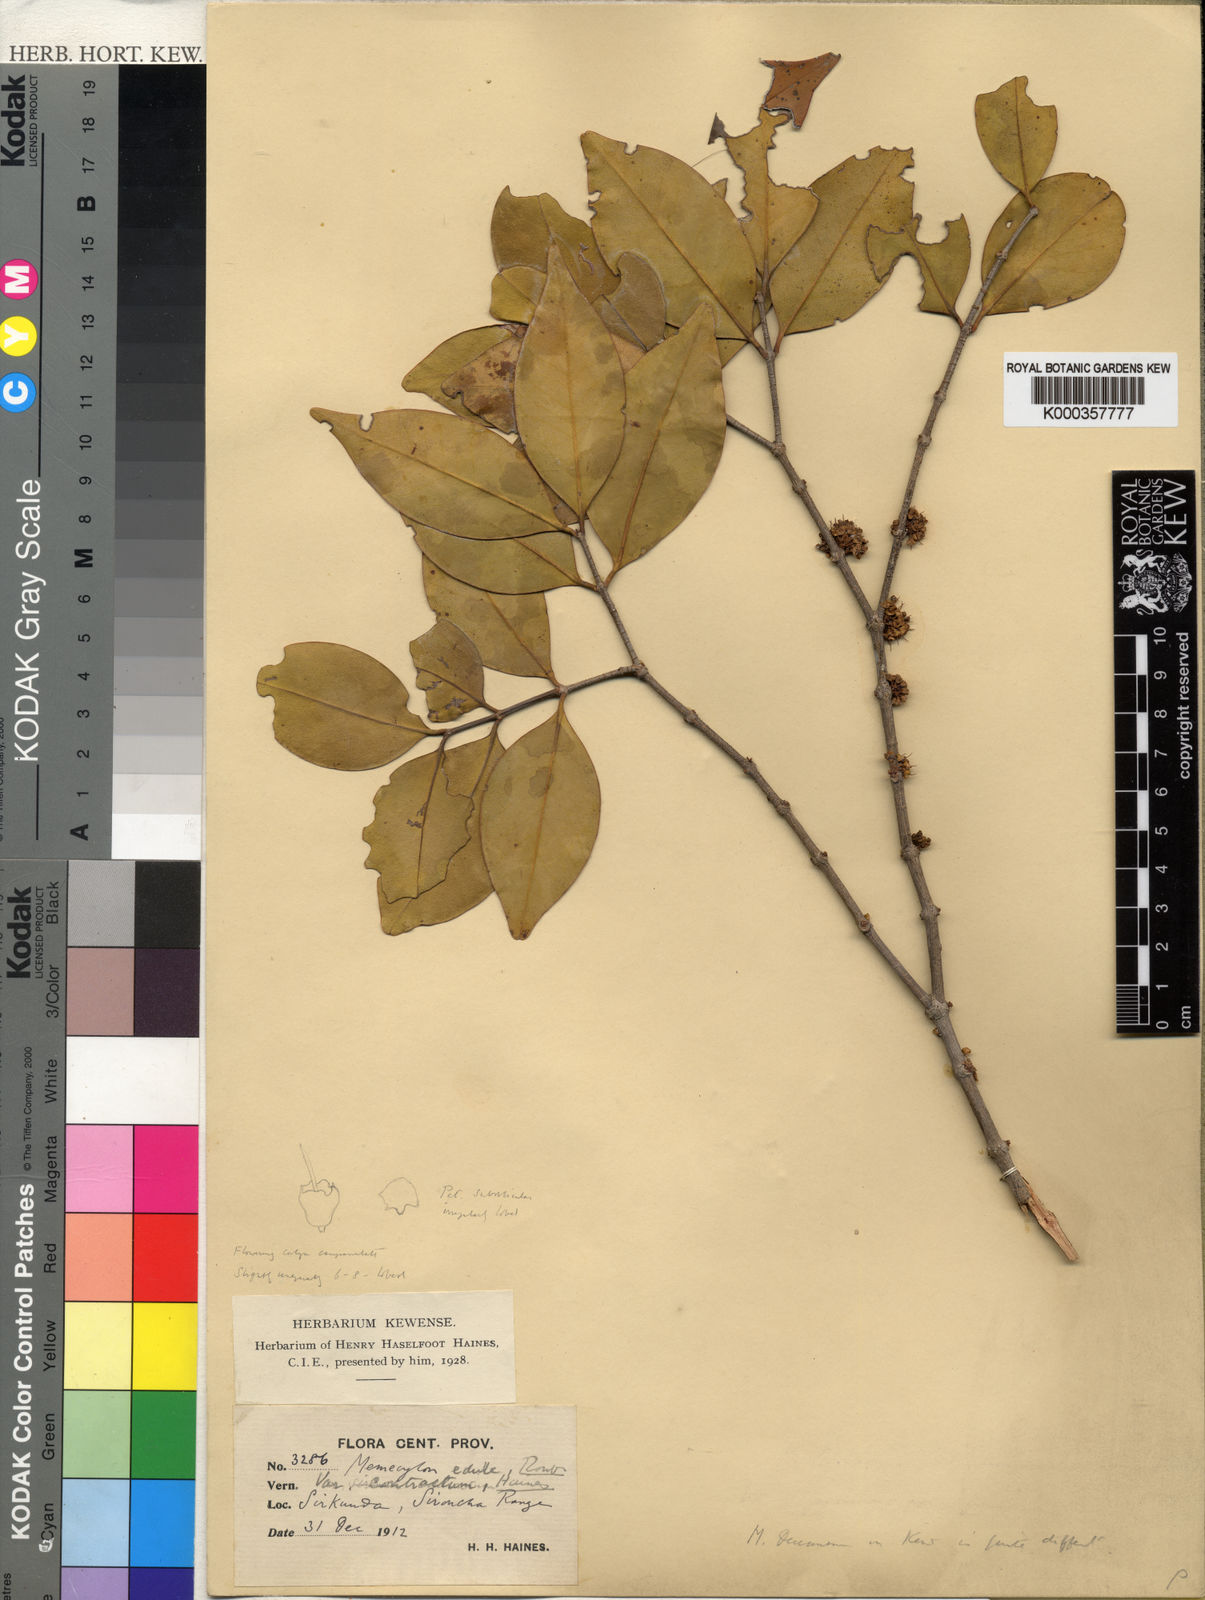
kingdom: Plantae
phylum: Tracheophyta
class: Magnoliopsida
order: Myrtales
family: Melastomataceae
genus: Memecylon
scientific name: Memecylon umbellatum
